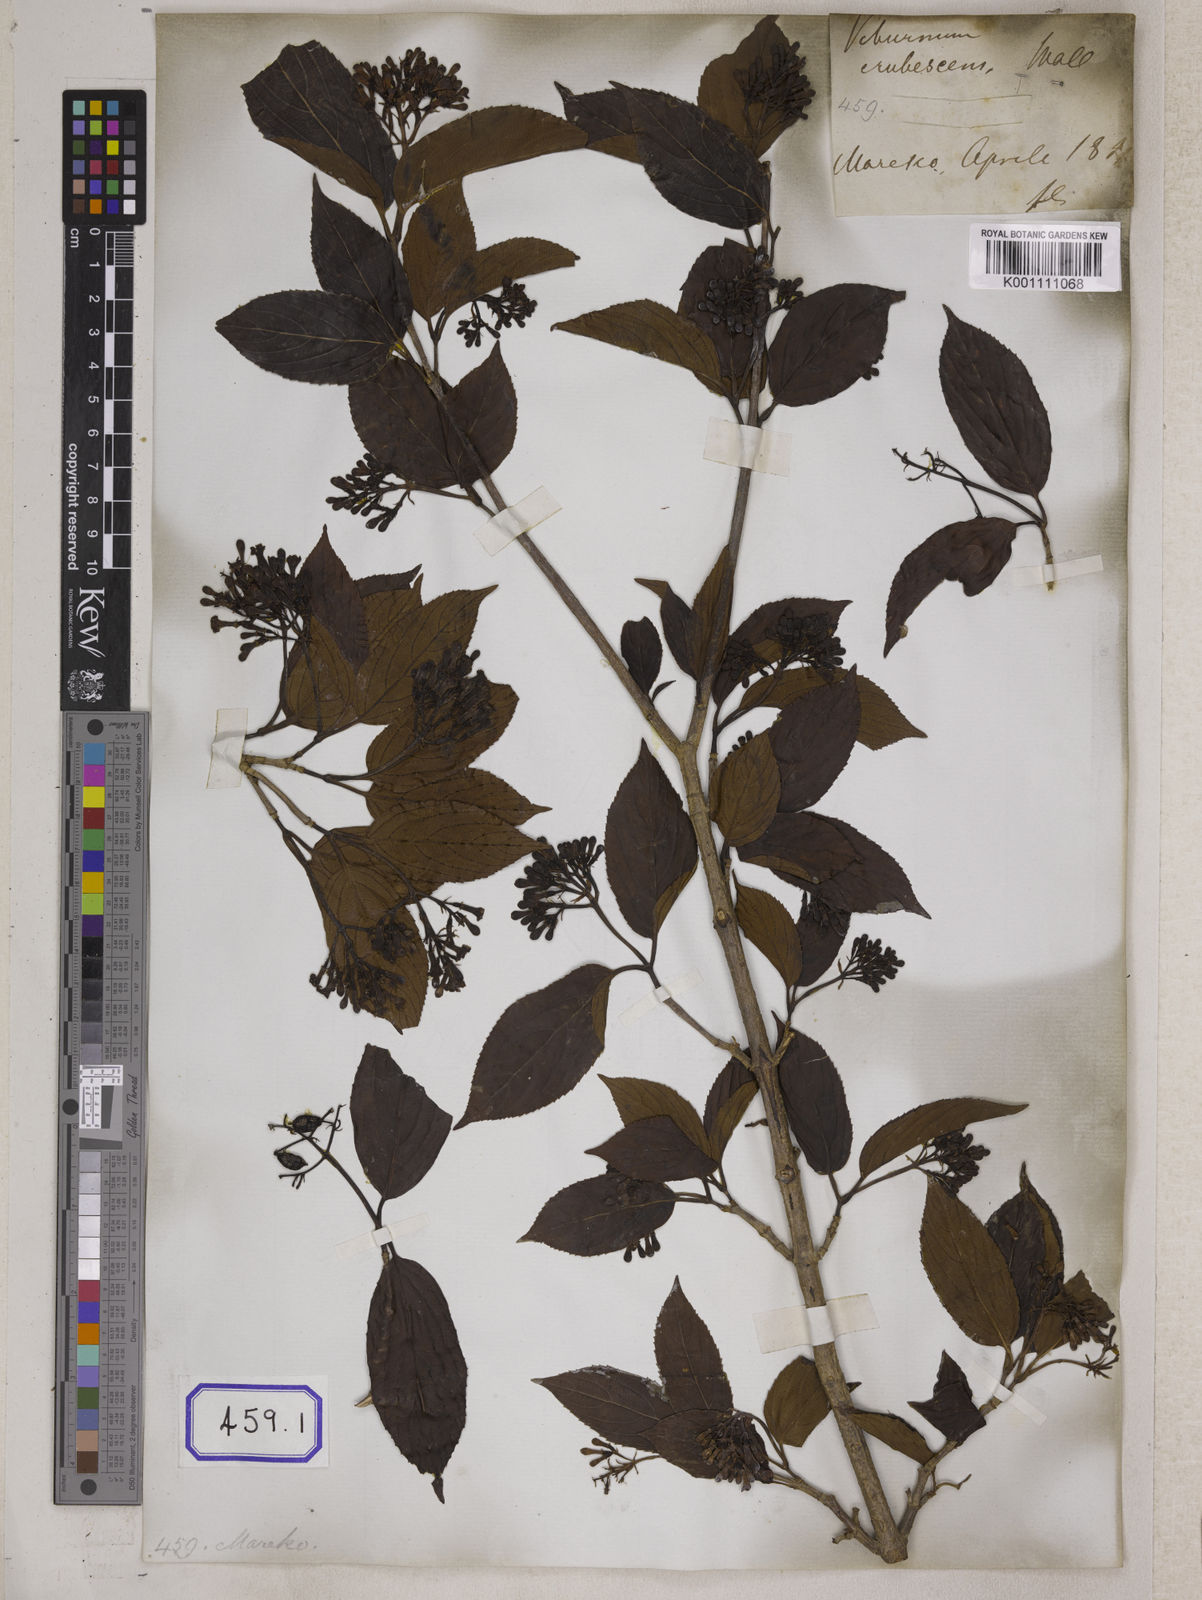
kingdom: Plantae
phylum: Tracheophyta
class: Magnoliopsida
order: Dipsacales
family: Viburnaceae
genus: Viburnum
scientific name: Viburnum
